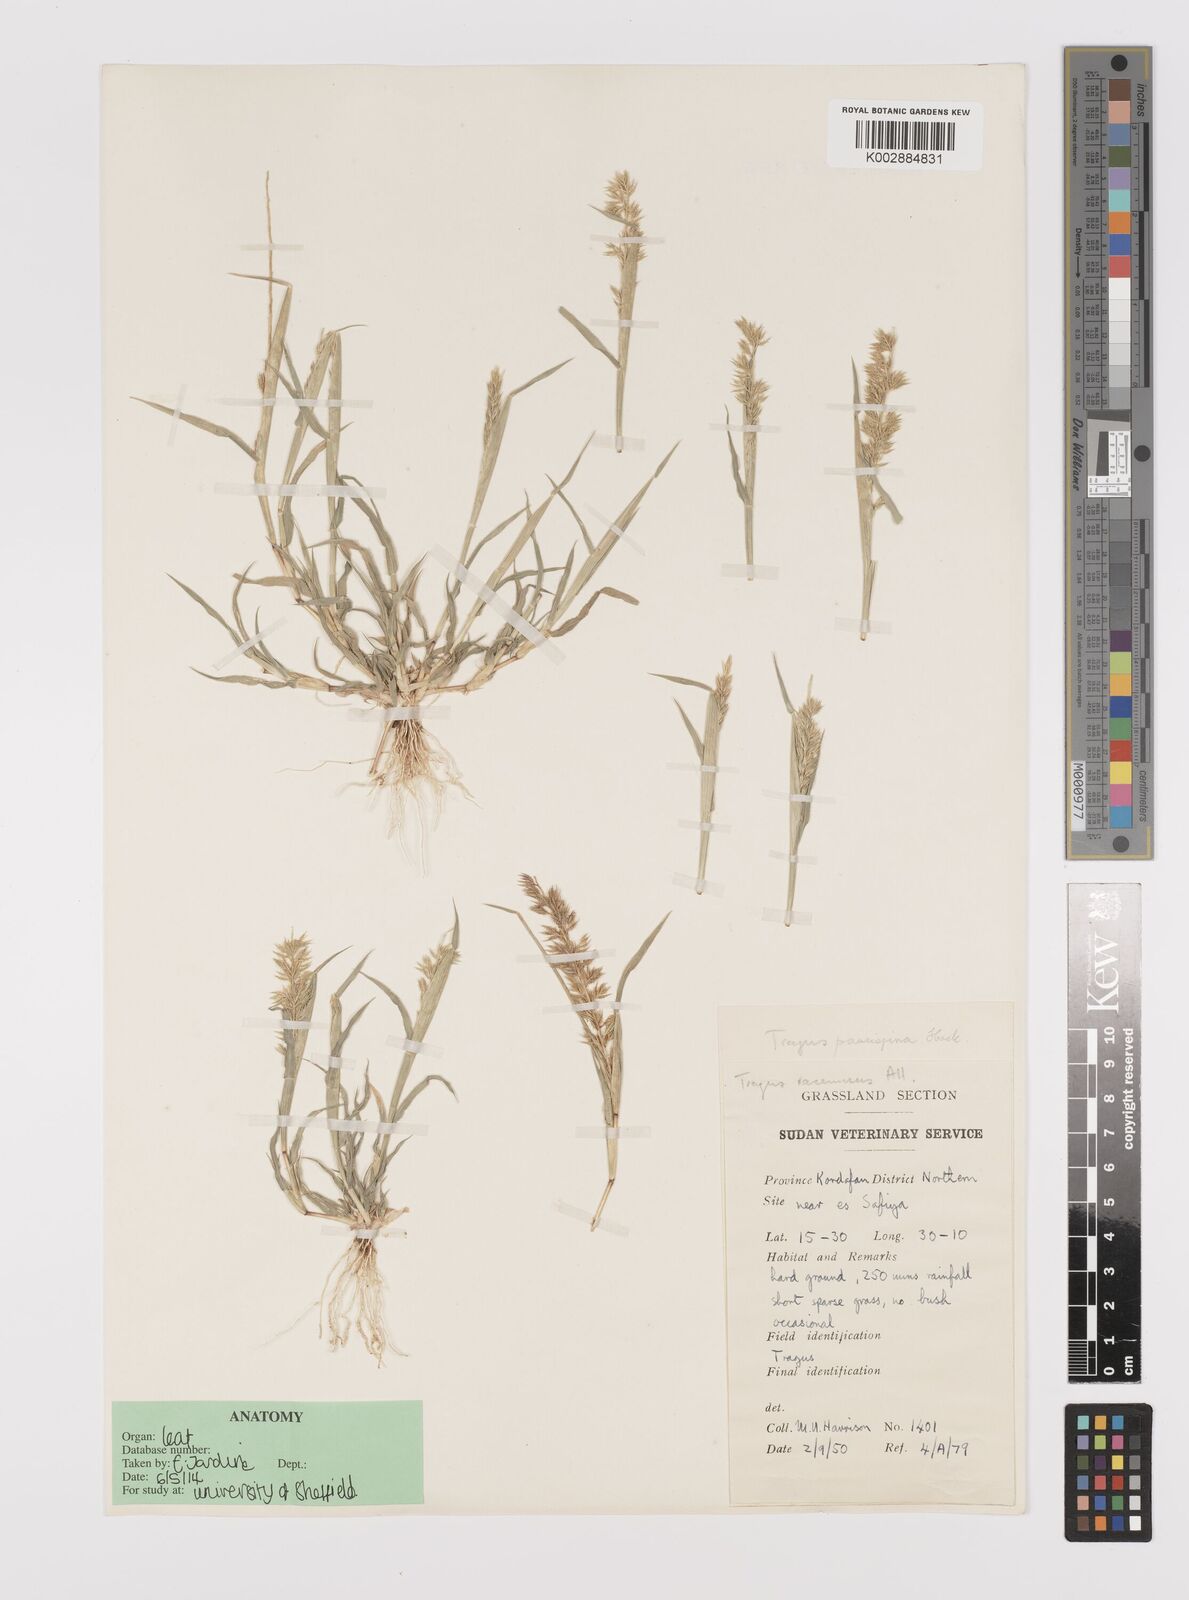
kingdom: Plantae
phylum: Tracheophyta
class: Liliopsida
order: Poales
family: Poaceae
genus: Tragus
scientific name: Tragus racemosus
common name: European bur-grass
